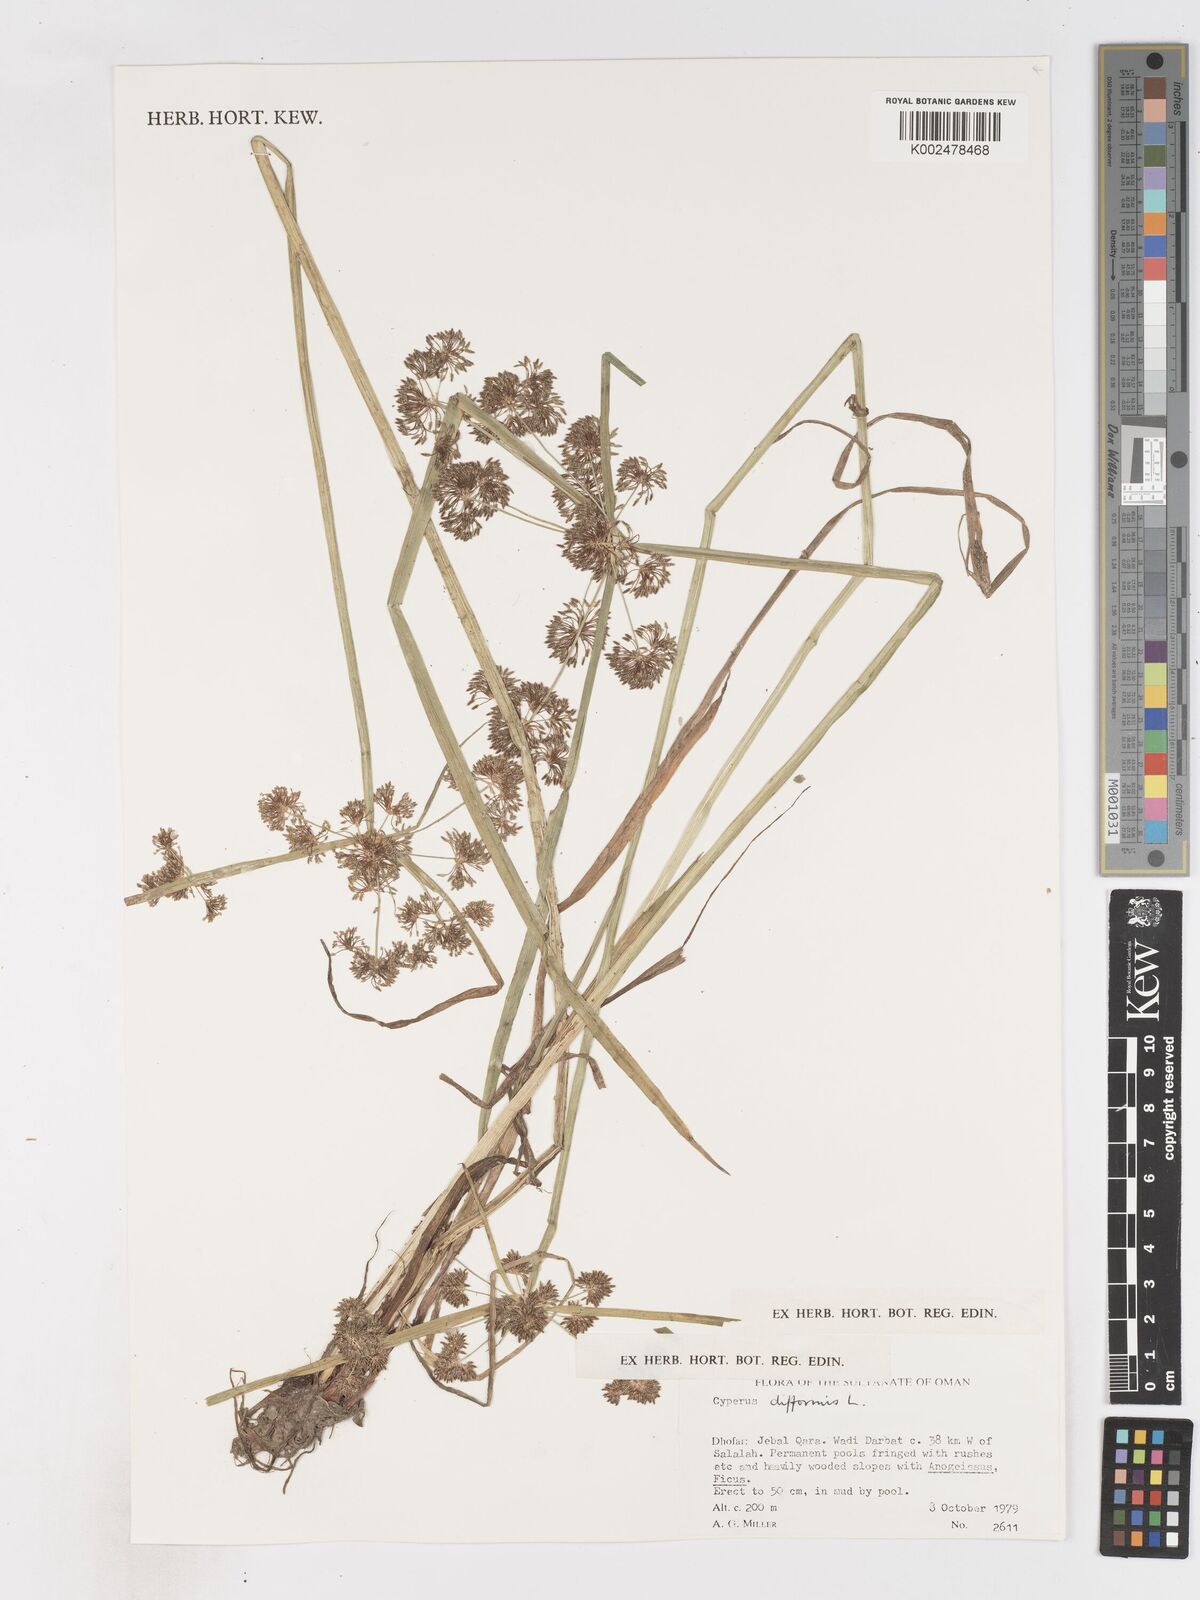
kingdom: Plantae
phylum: Tracheophyta
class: Liliopsida
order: Poales
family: Cyperaceae
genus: Cyperus
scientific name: Cyperus difformis
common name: Variable flatsedge
